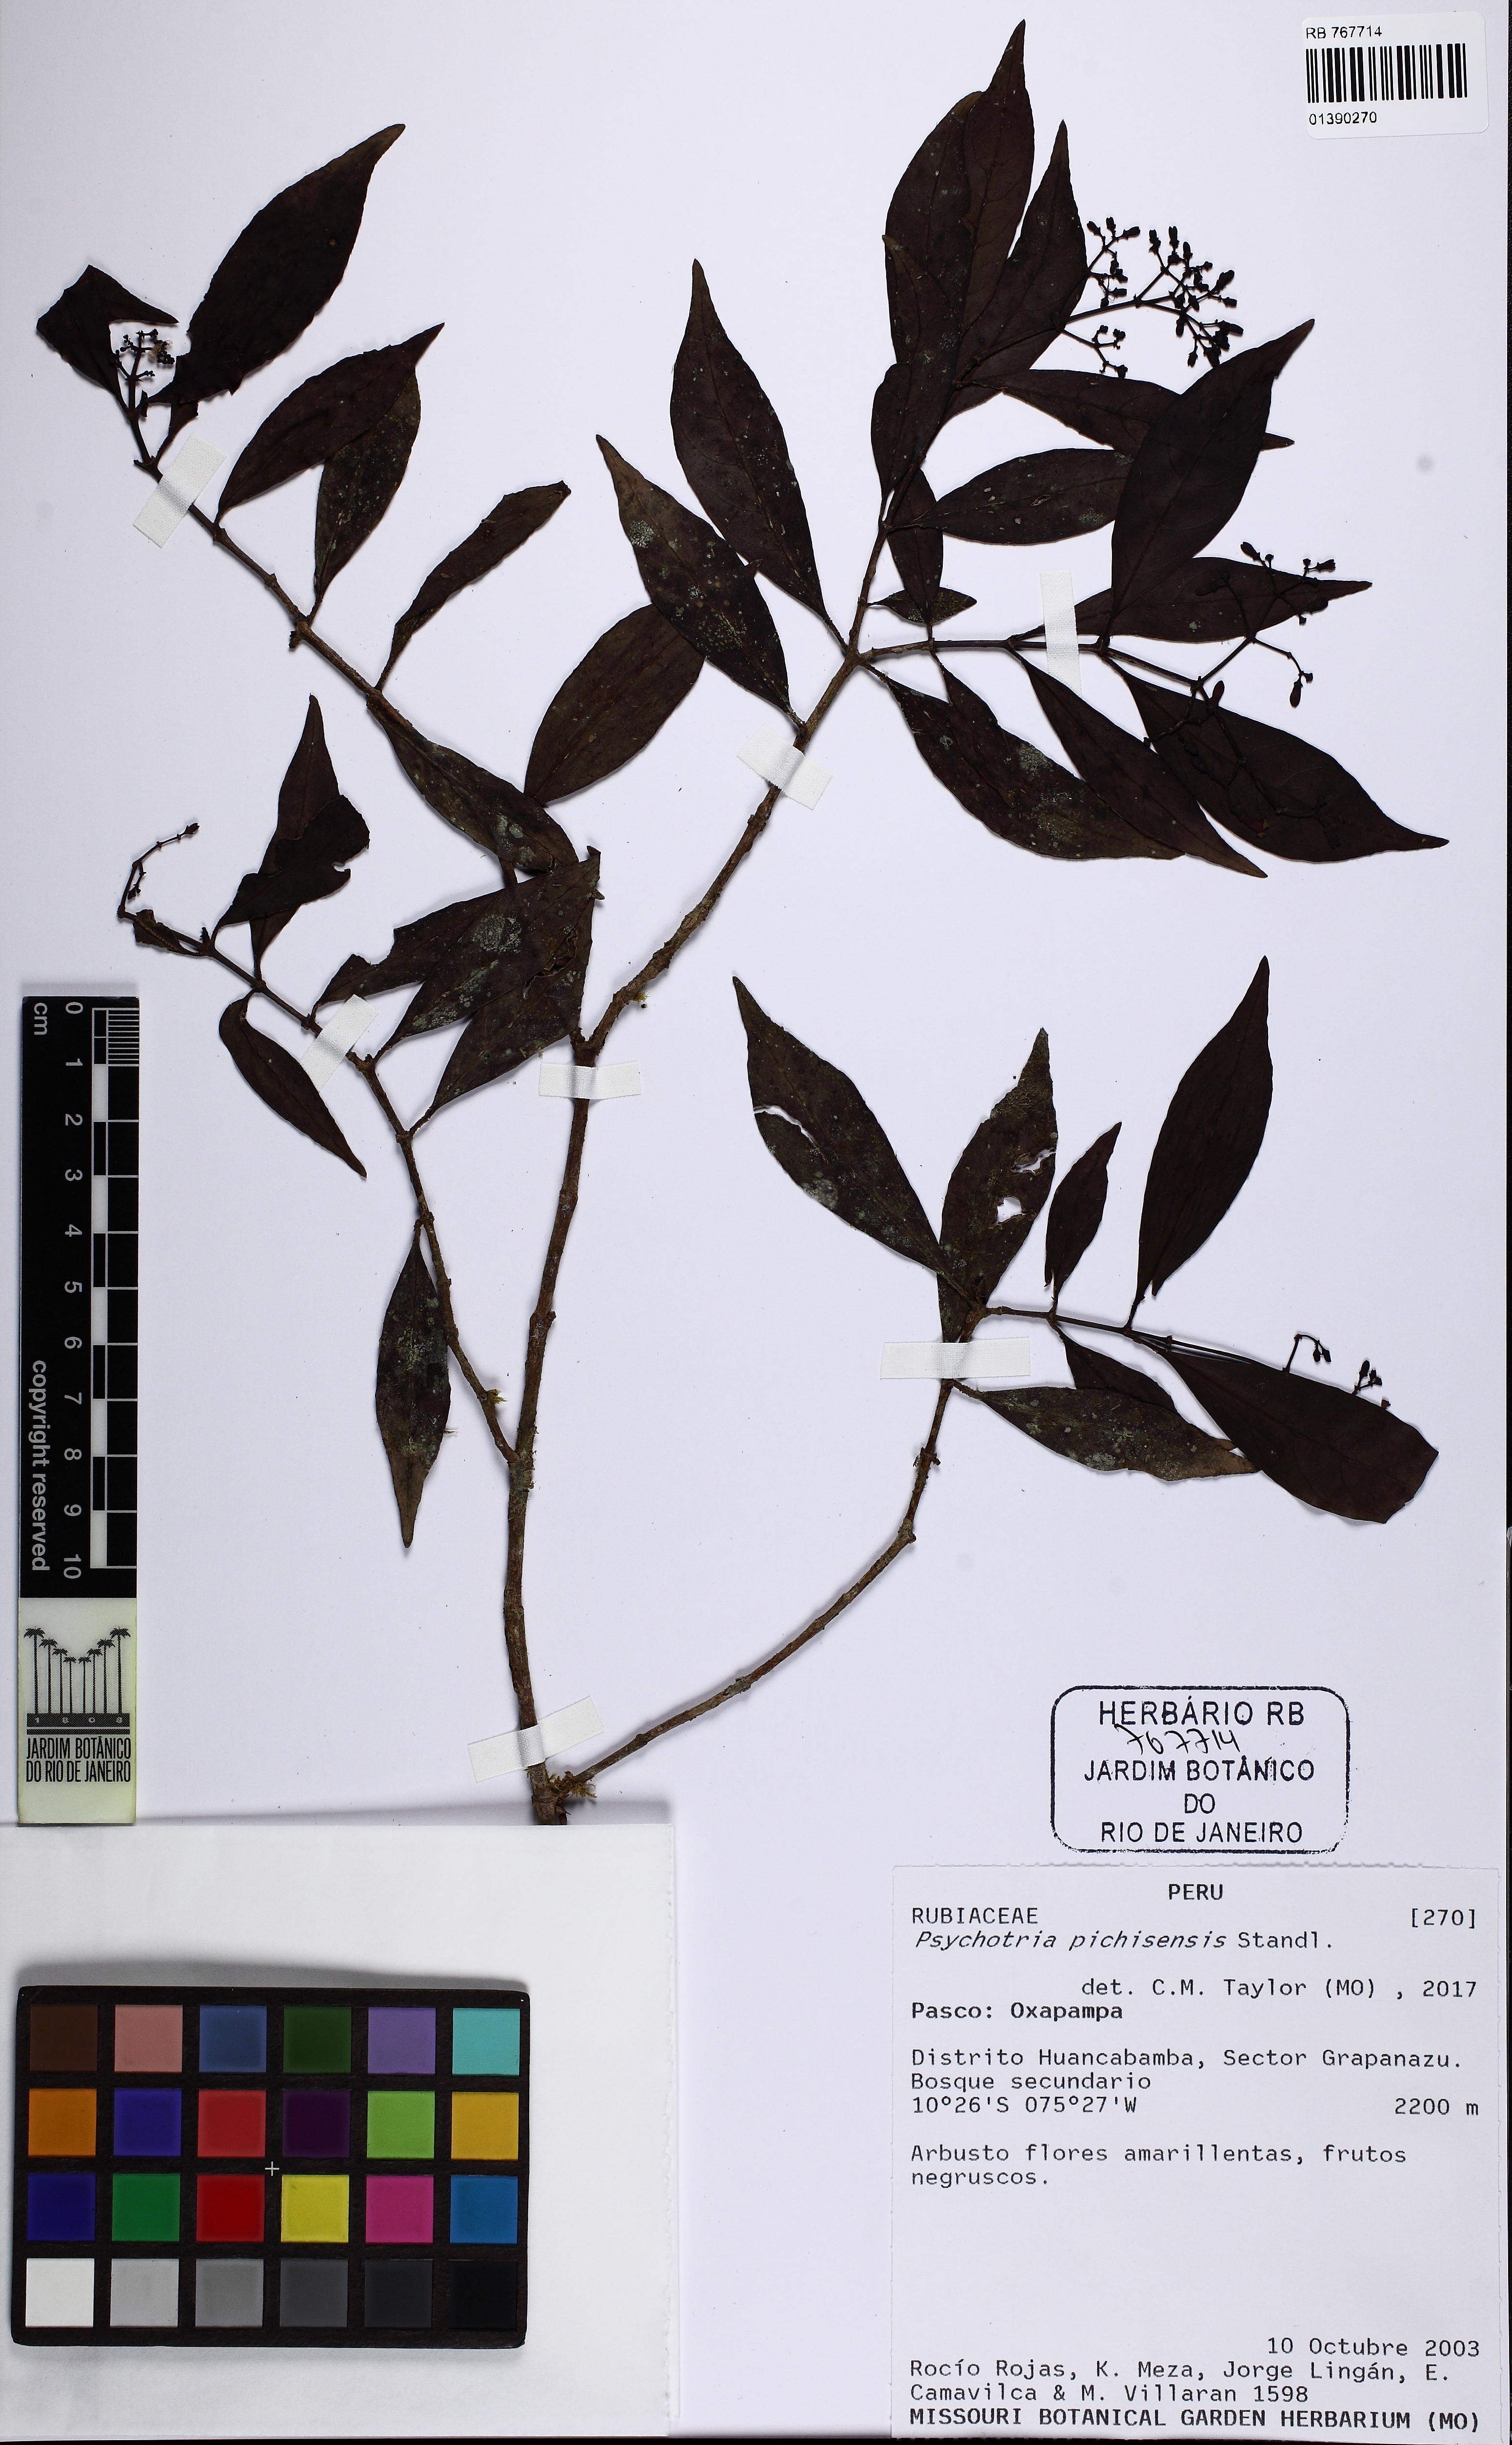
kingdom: Plantae
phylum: Tracheophyta
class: Magnoliopsida
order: Gentianales
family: Rubiaceae
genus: Psychotria
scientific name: Psychotria pichisensis
